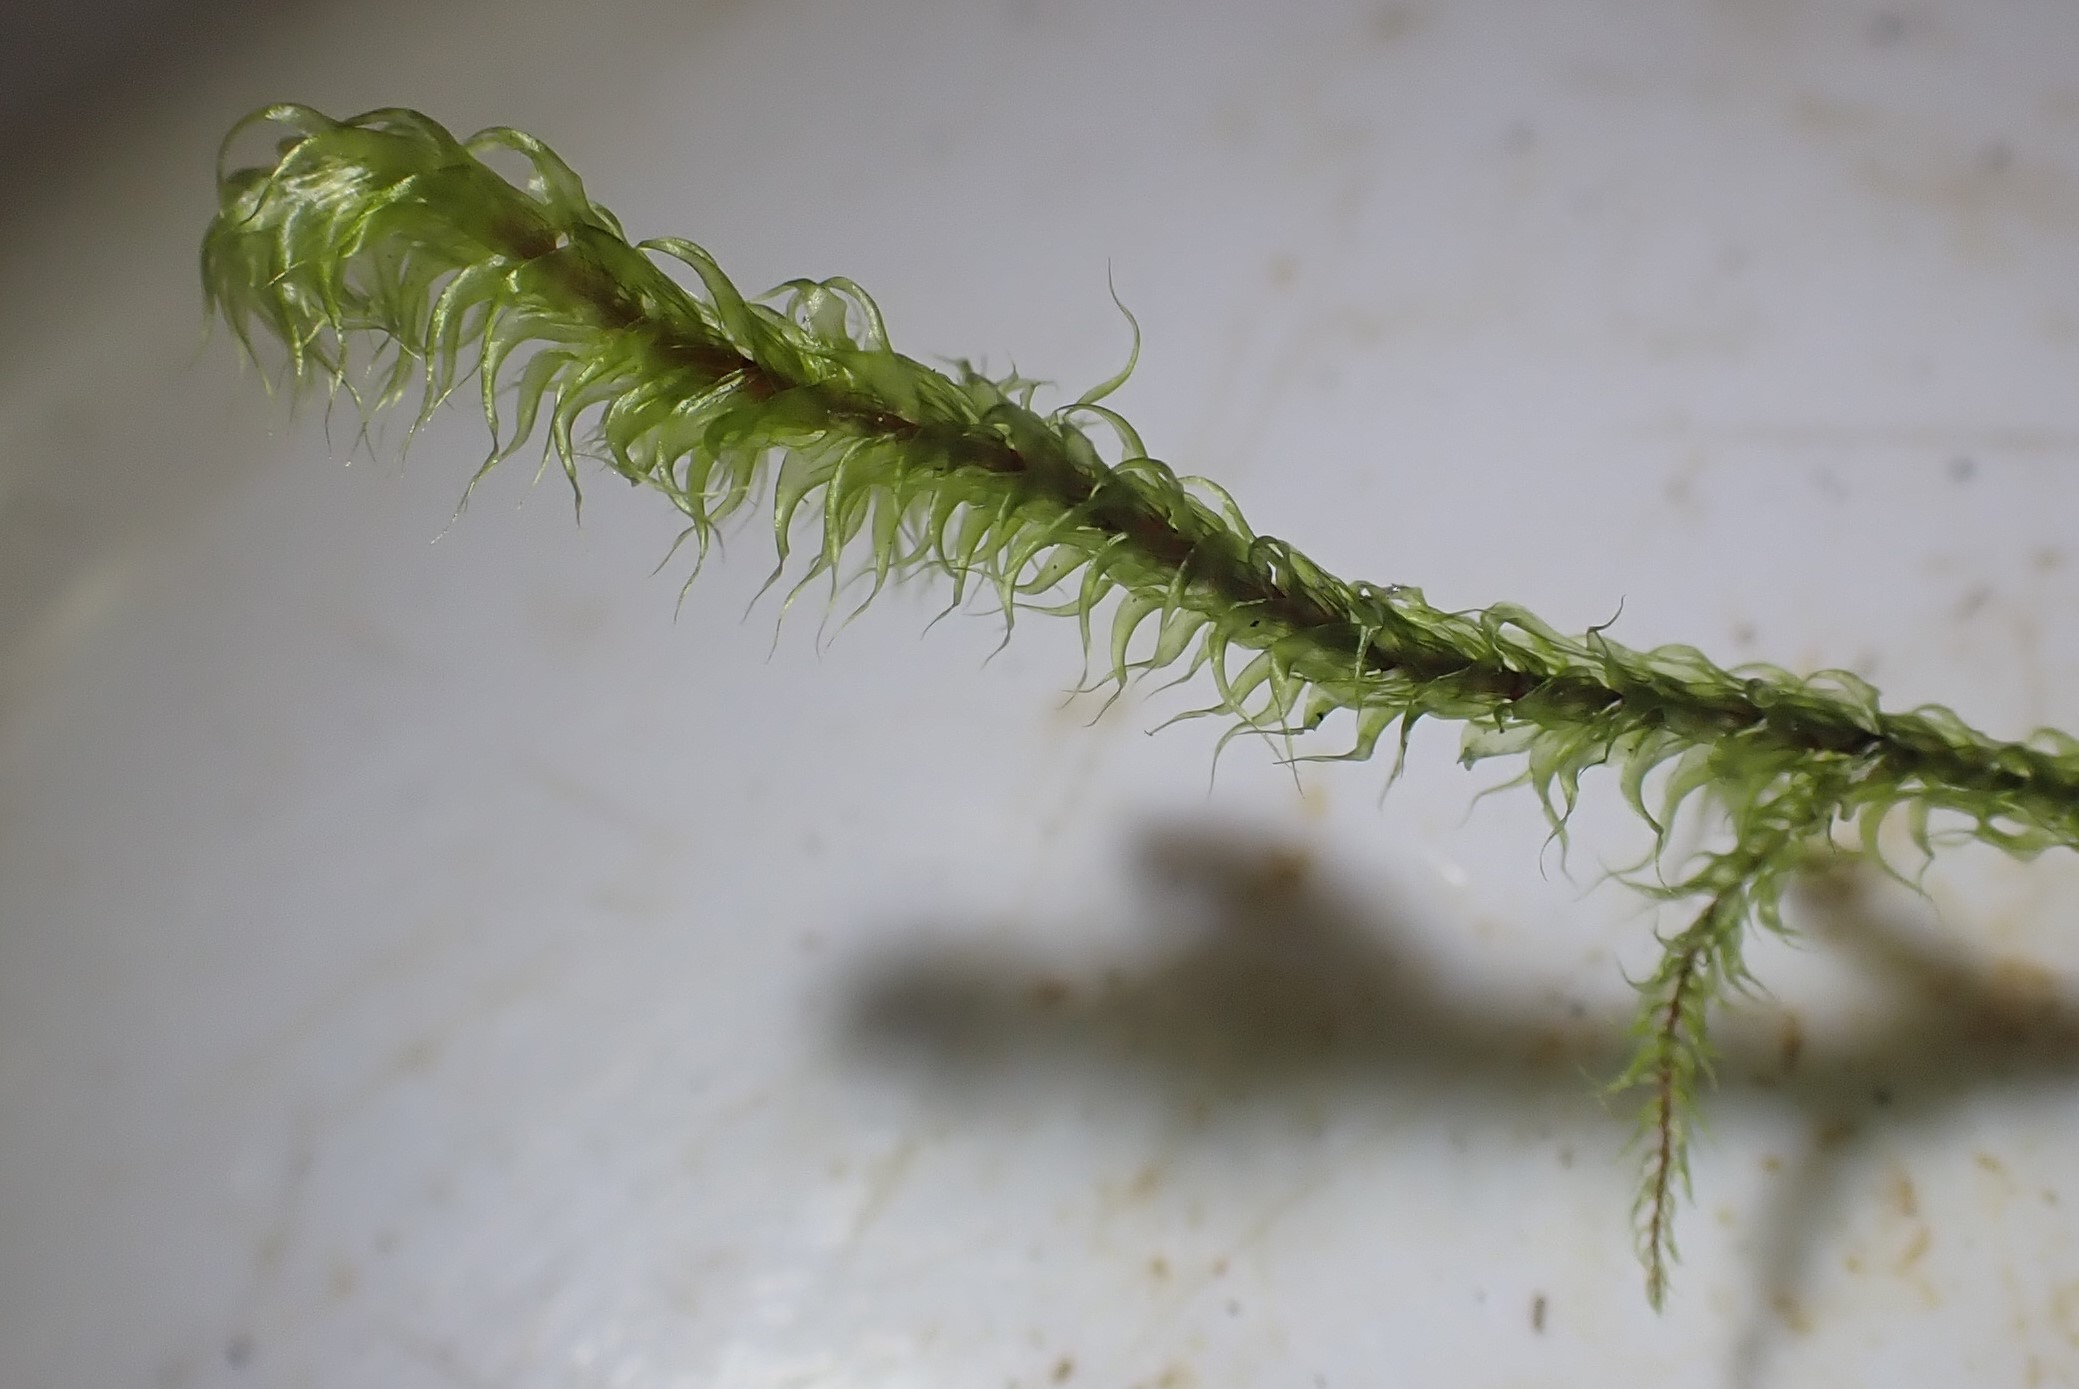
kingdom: Plantae
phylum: Bryophyta
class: Bryopsida
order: Hypnales
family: Hylocomiaceae
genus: Rhytidiadelphus
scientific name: Rhytidiadelphus loreus
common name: Ulvefod-kransemos
